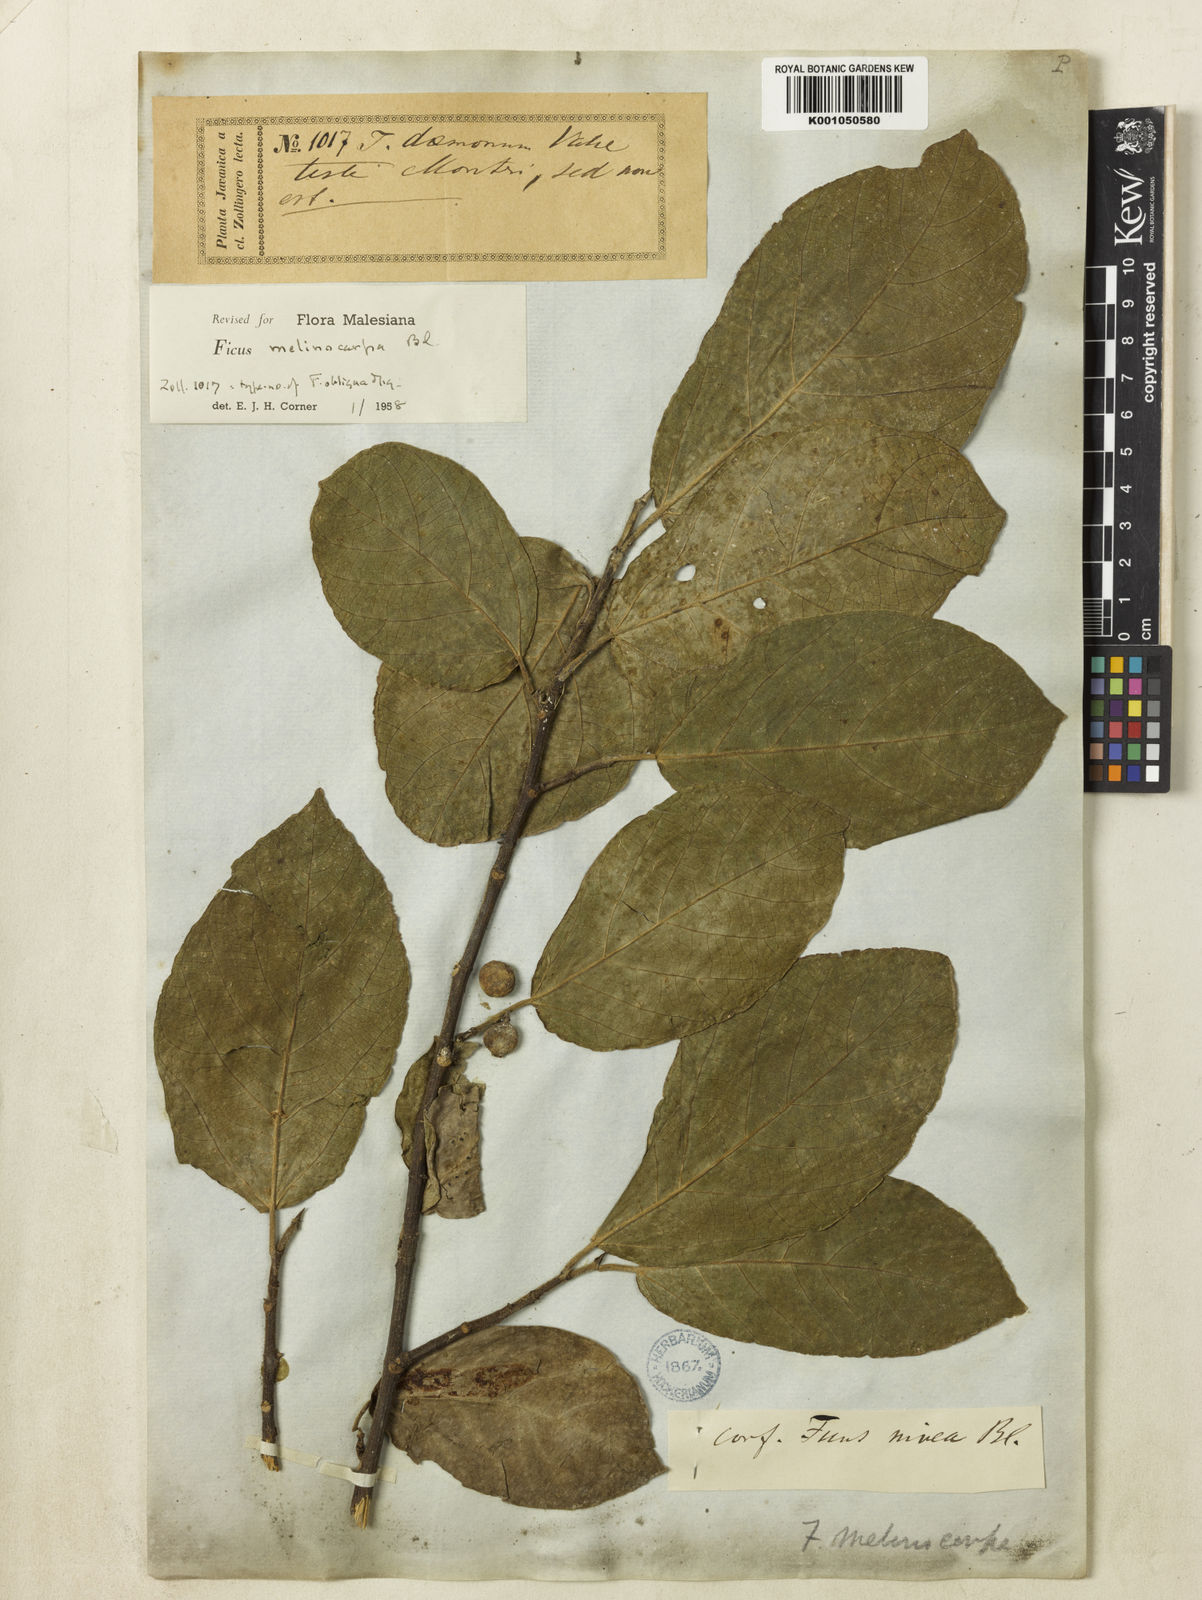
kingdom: Plantae
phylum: Tracheophyta
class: Magnoliopsida
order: Rosales
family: Moraceae
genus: Ficus
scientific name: Ficus melinocarpa
